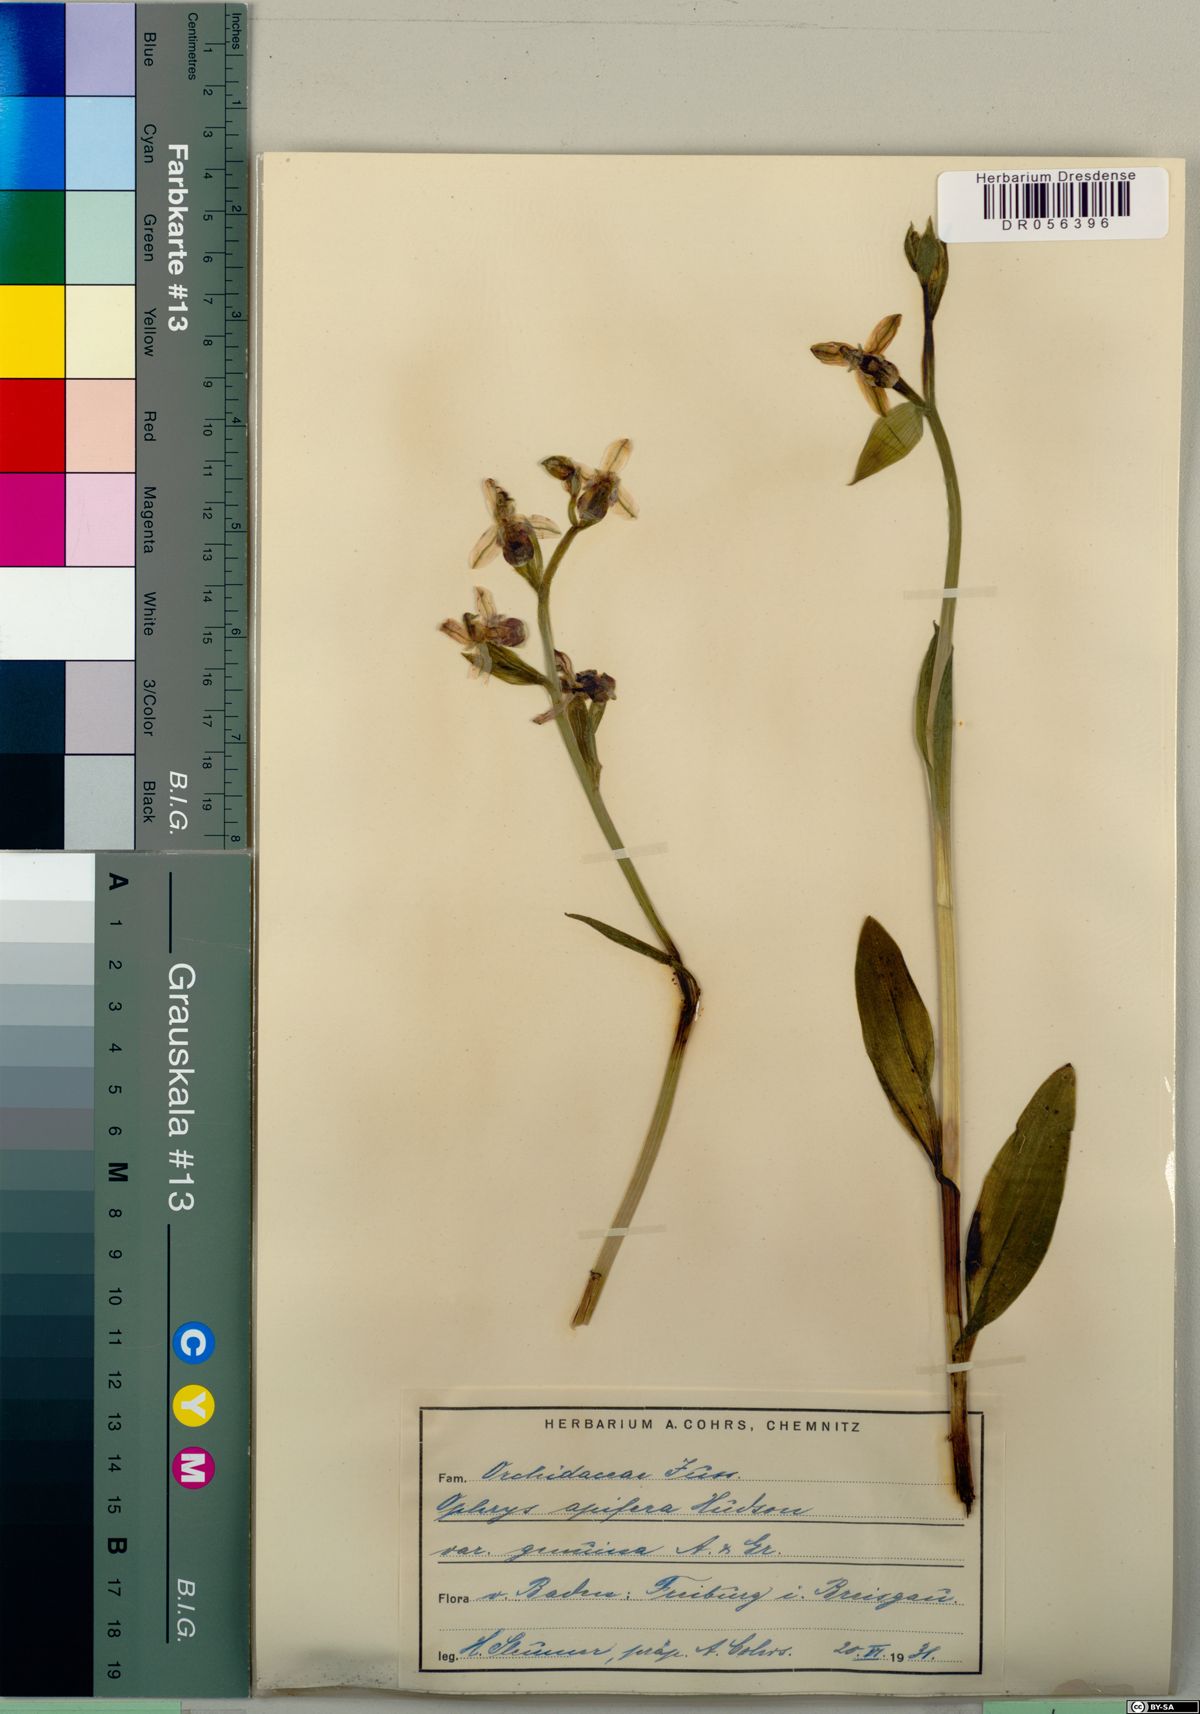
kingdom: Plantae
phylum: Tracheophyta
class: Liliopsida
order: Asparagales
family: Orchidaceae
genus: Ophrys
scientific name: Ophrys apifera
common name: Bee orchid
